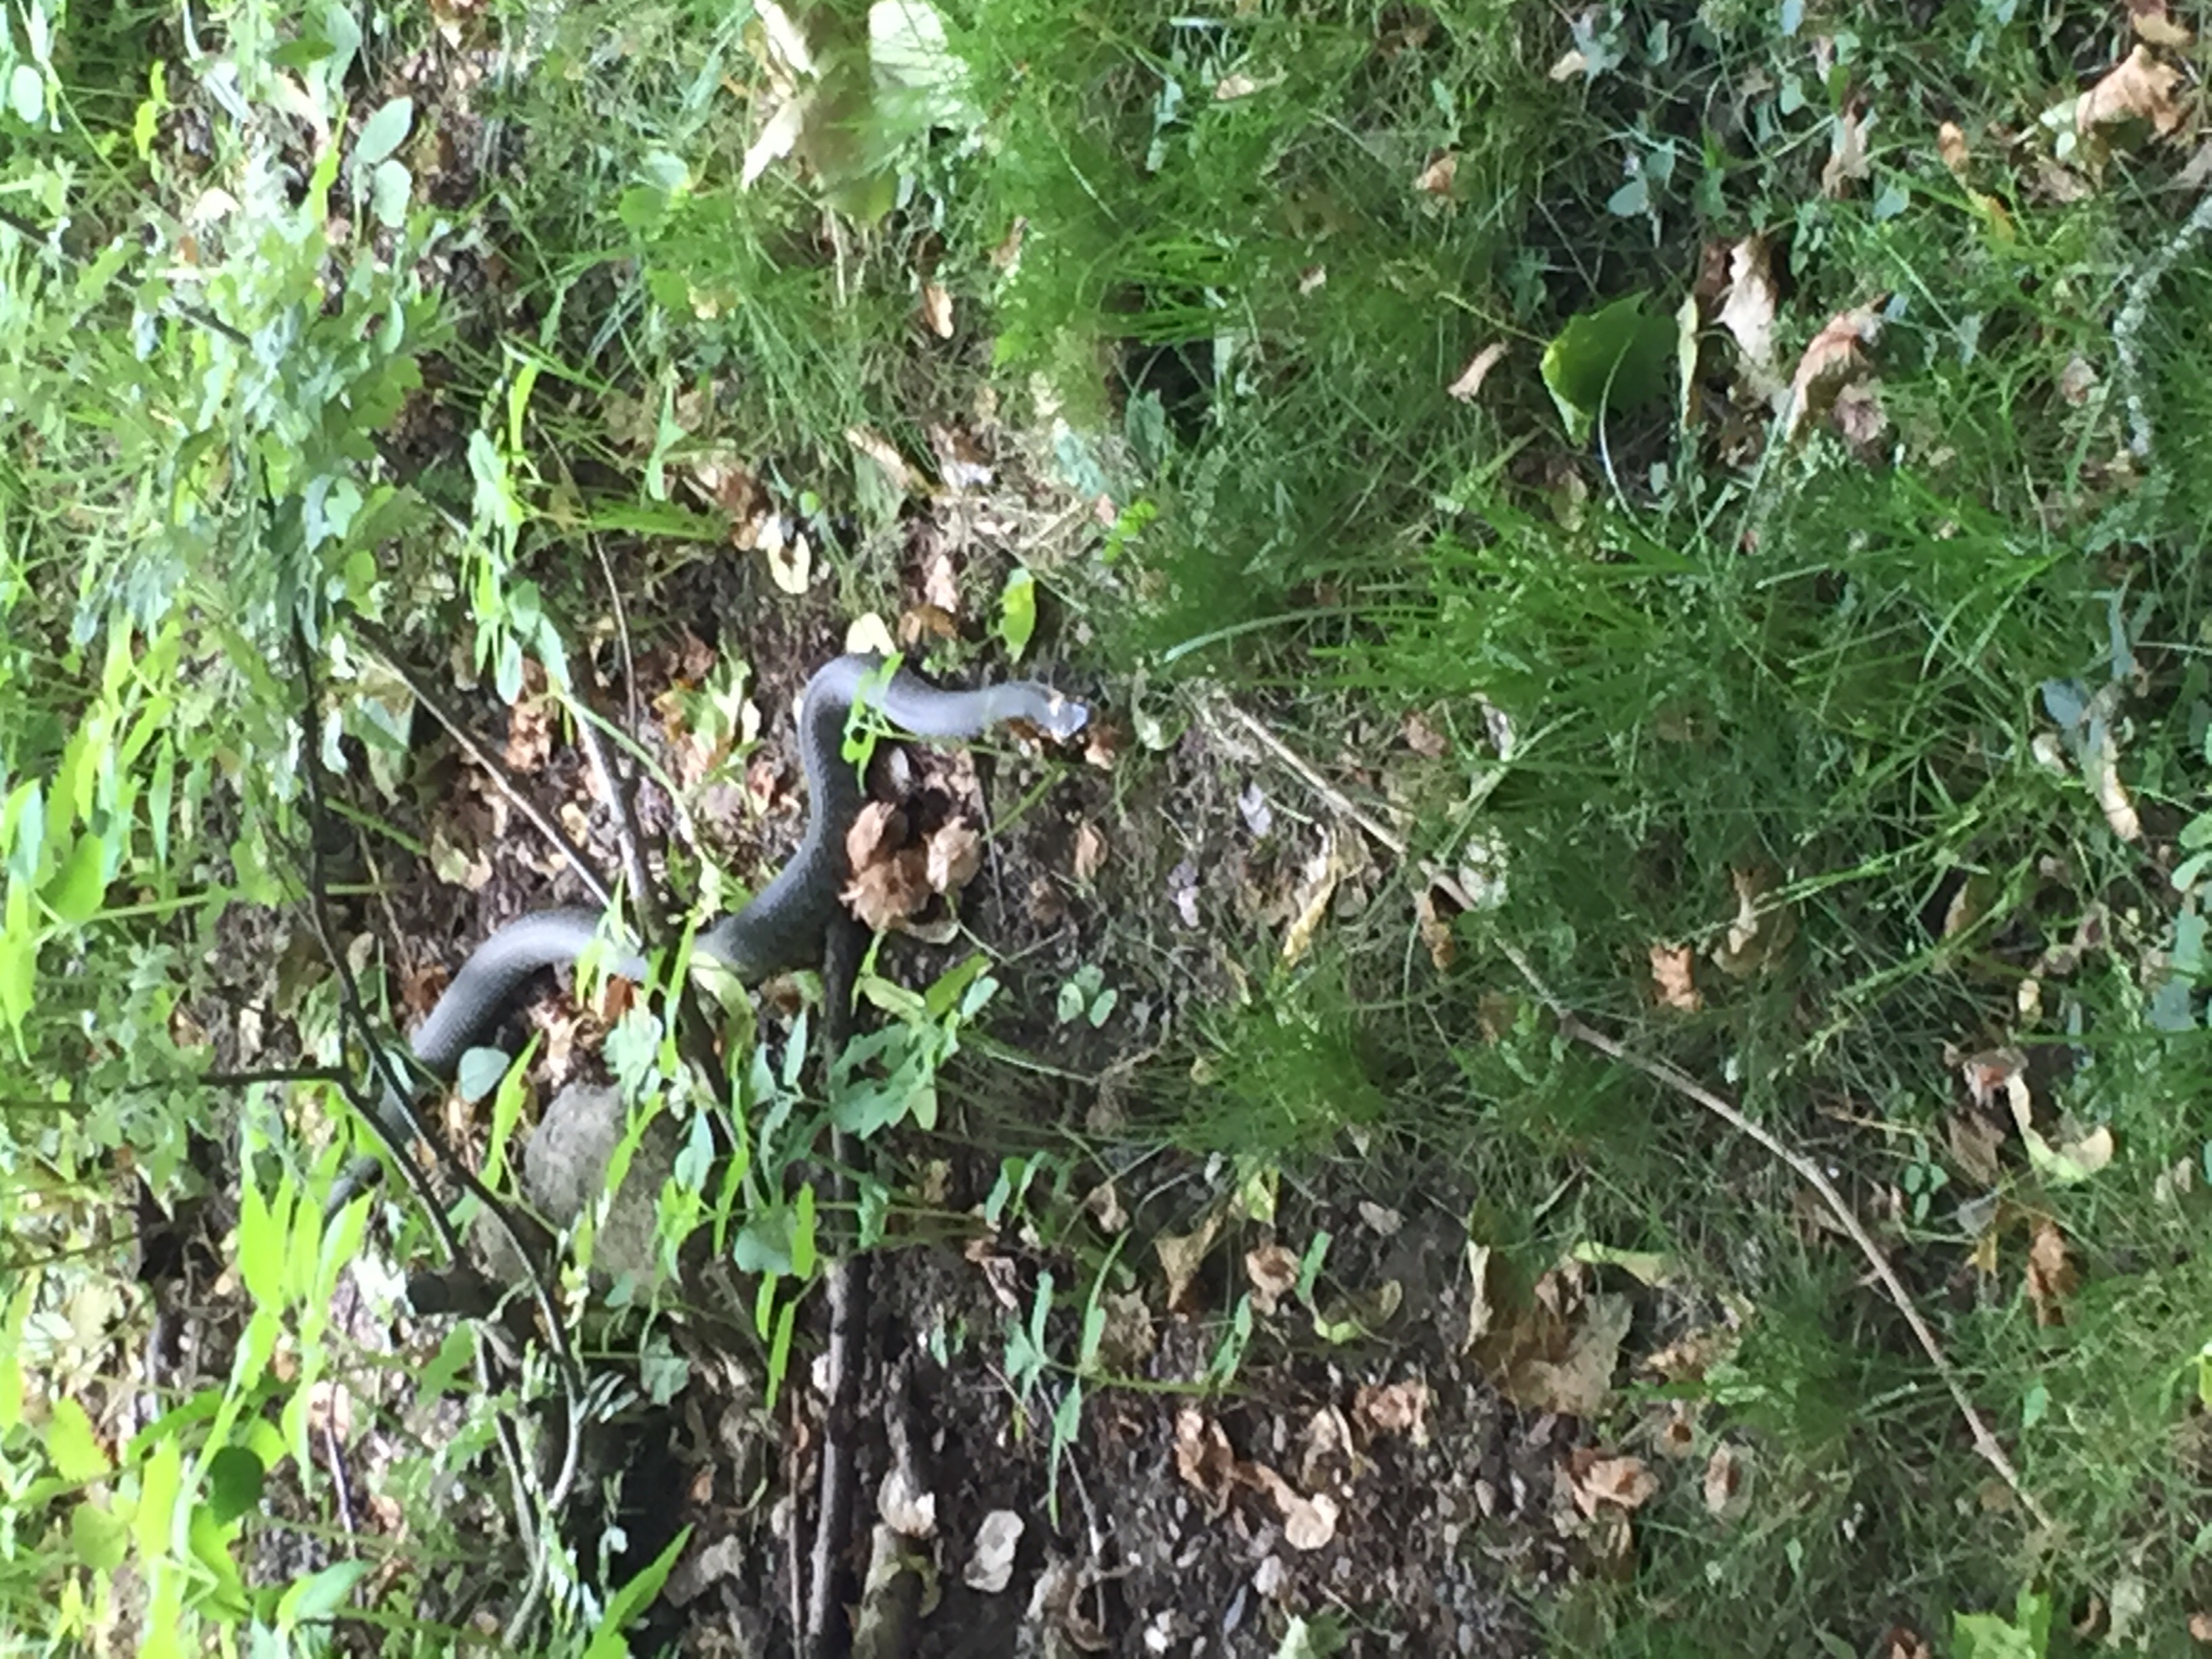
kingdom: Animalia
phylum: Chordata
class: Squamata
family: Colubridae
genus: Natrix
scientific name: Natrix natrix
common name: Grass snake
